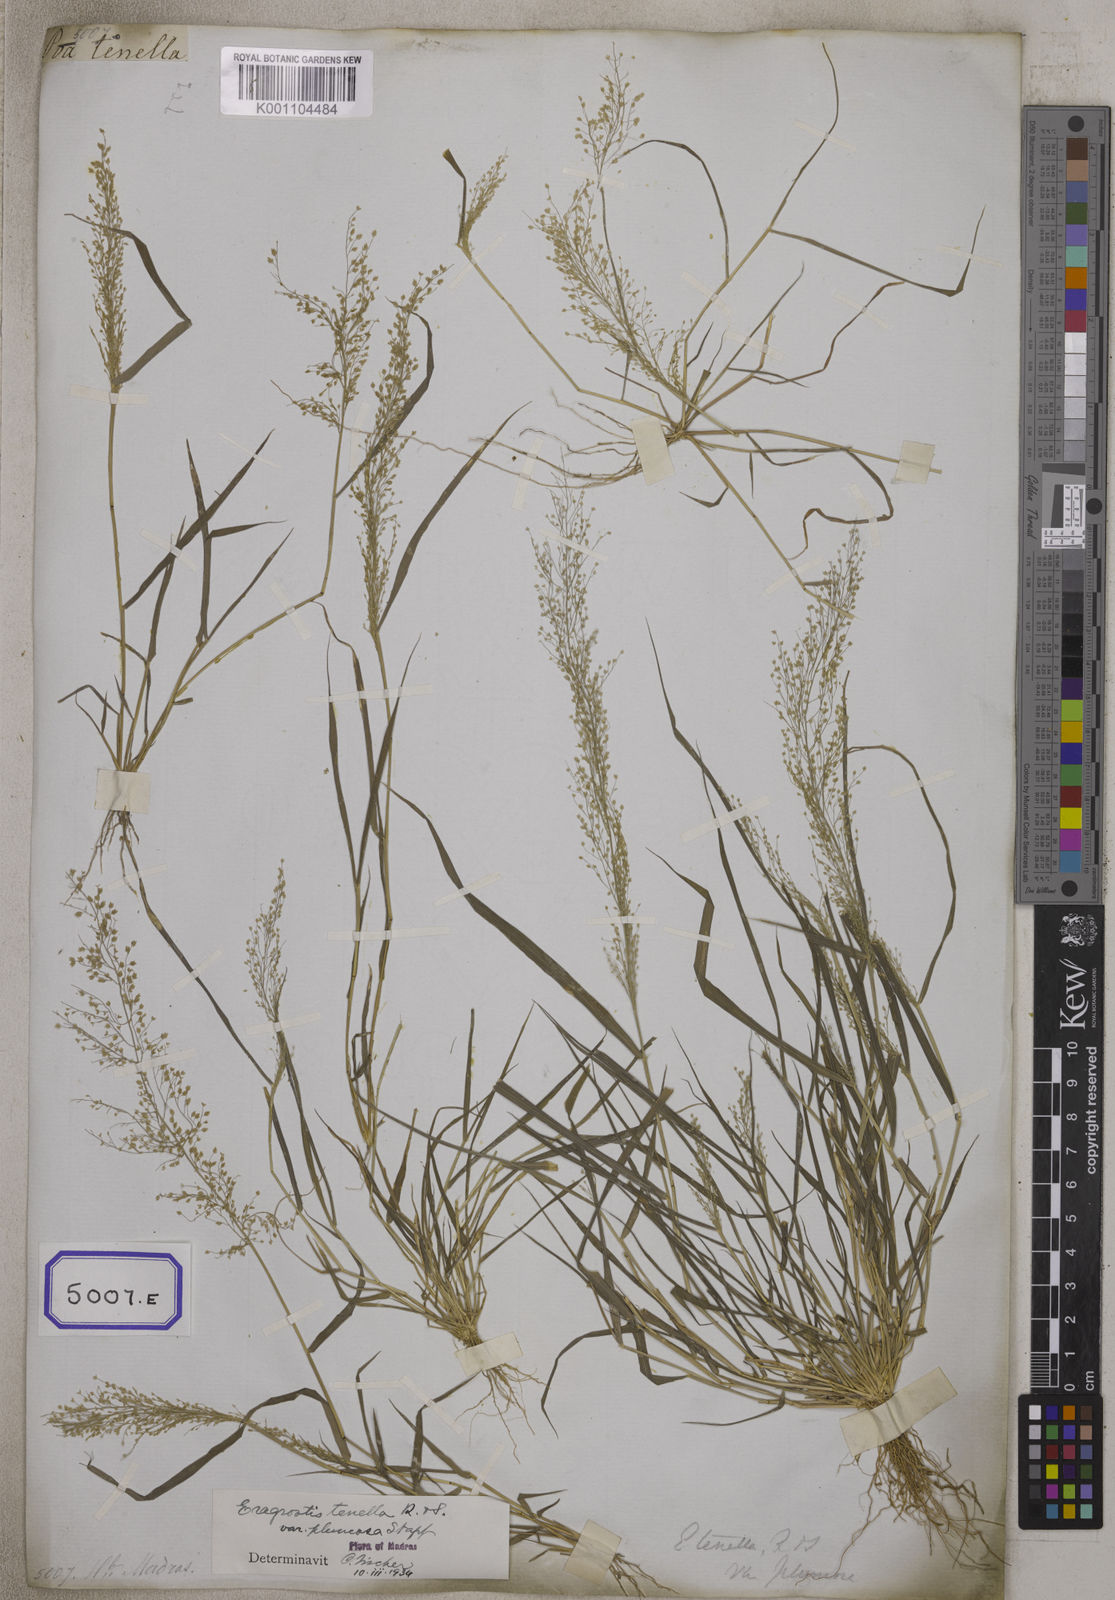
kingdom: Plantae
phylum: Tracheophyta
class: Liliopsida
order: Poales
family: Poaceae
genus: Eragrostis
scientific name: Eragrostis
